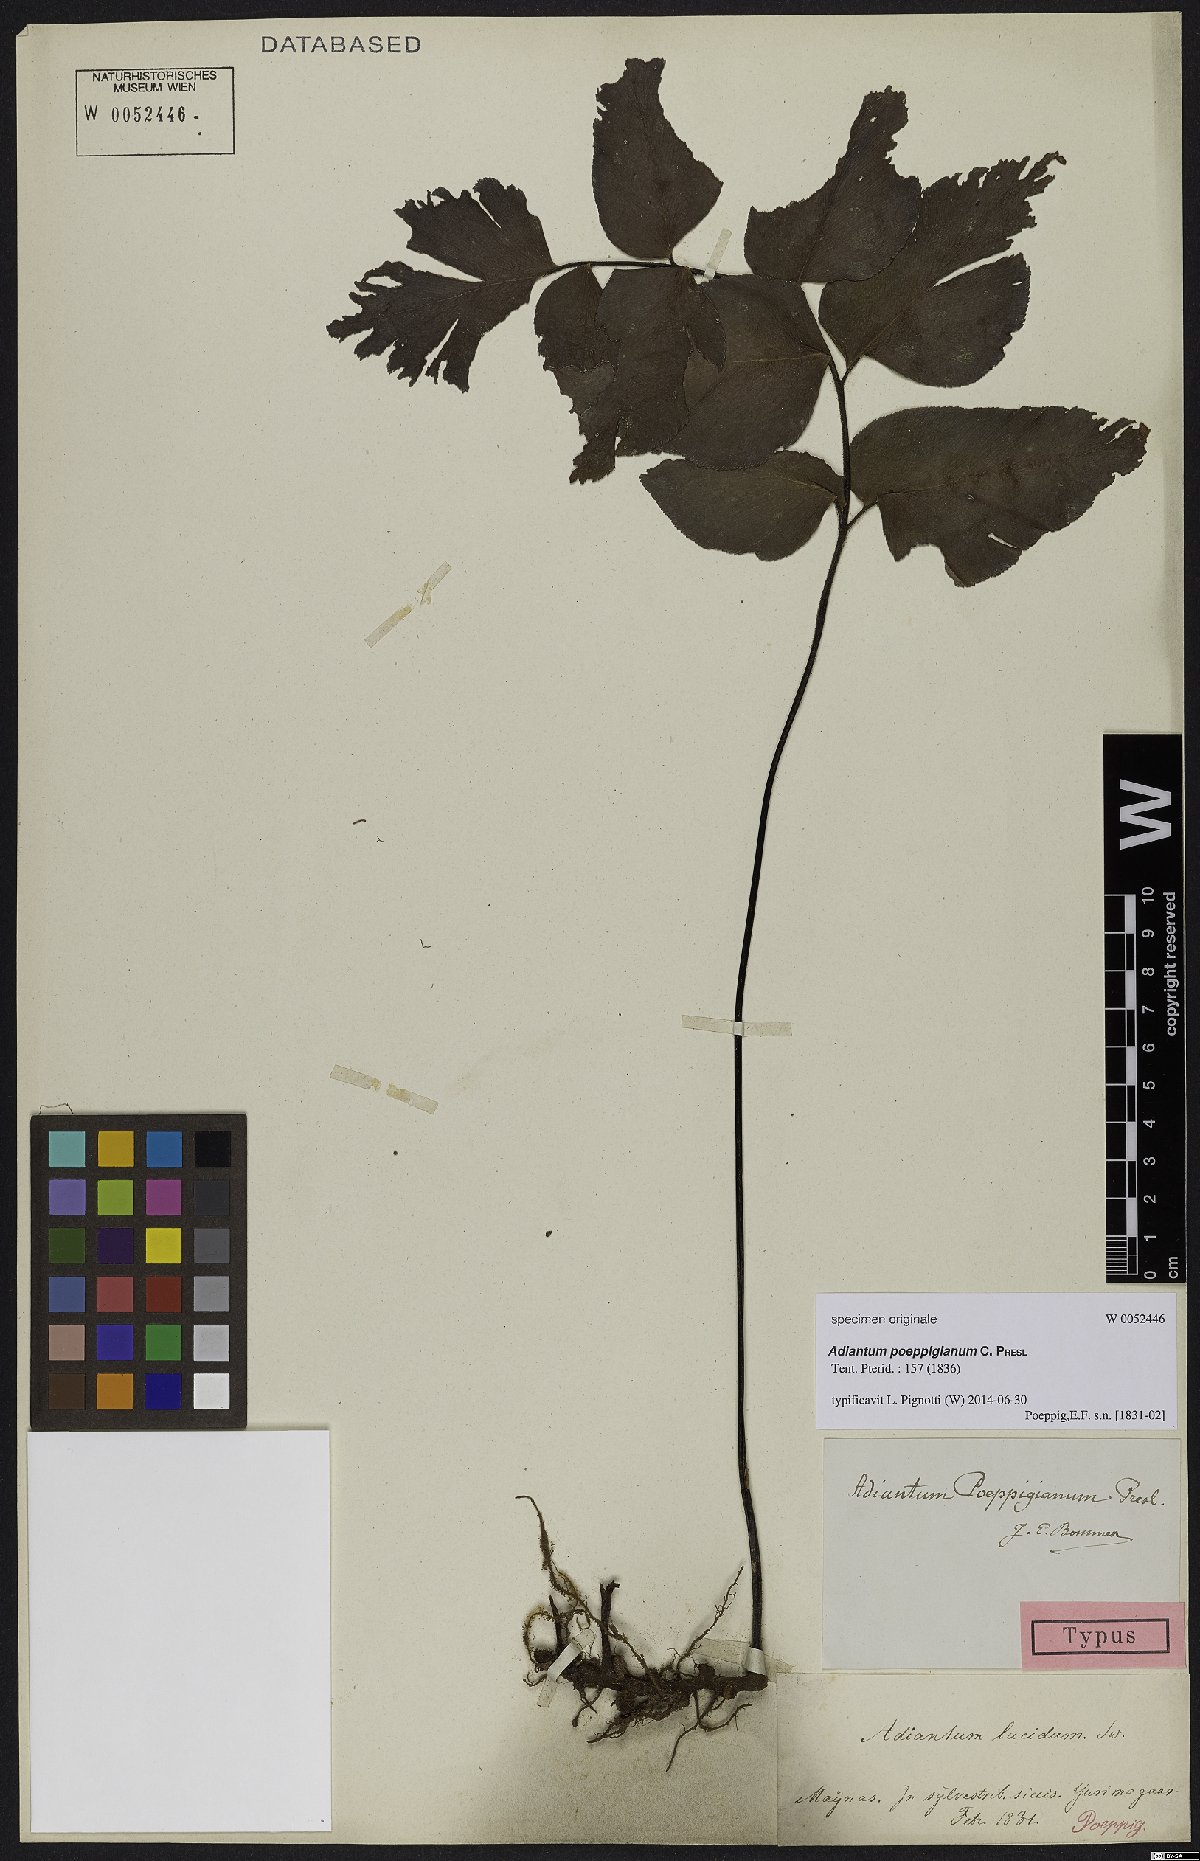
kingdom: Plantae
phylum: Tracheophyta
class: Polypodiopsida
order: Polypodiales
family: Pteridaceae
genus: Adiantum
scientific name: Adiantum poeppigianum
